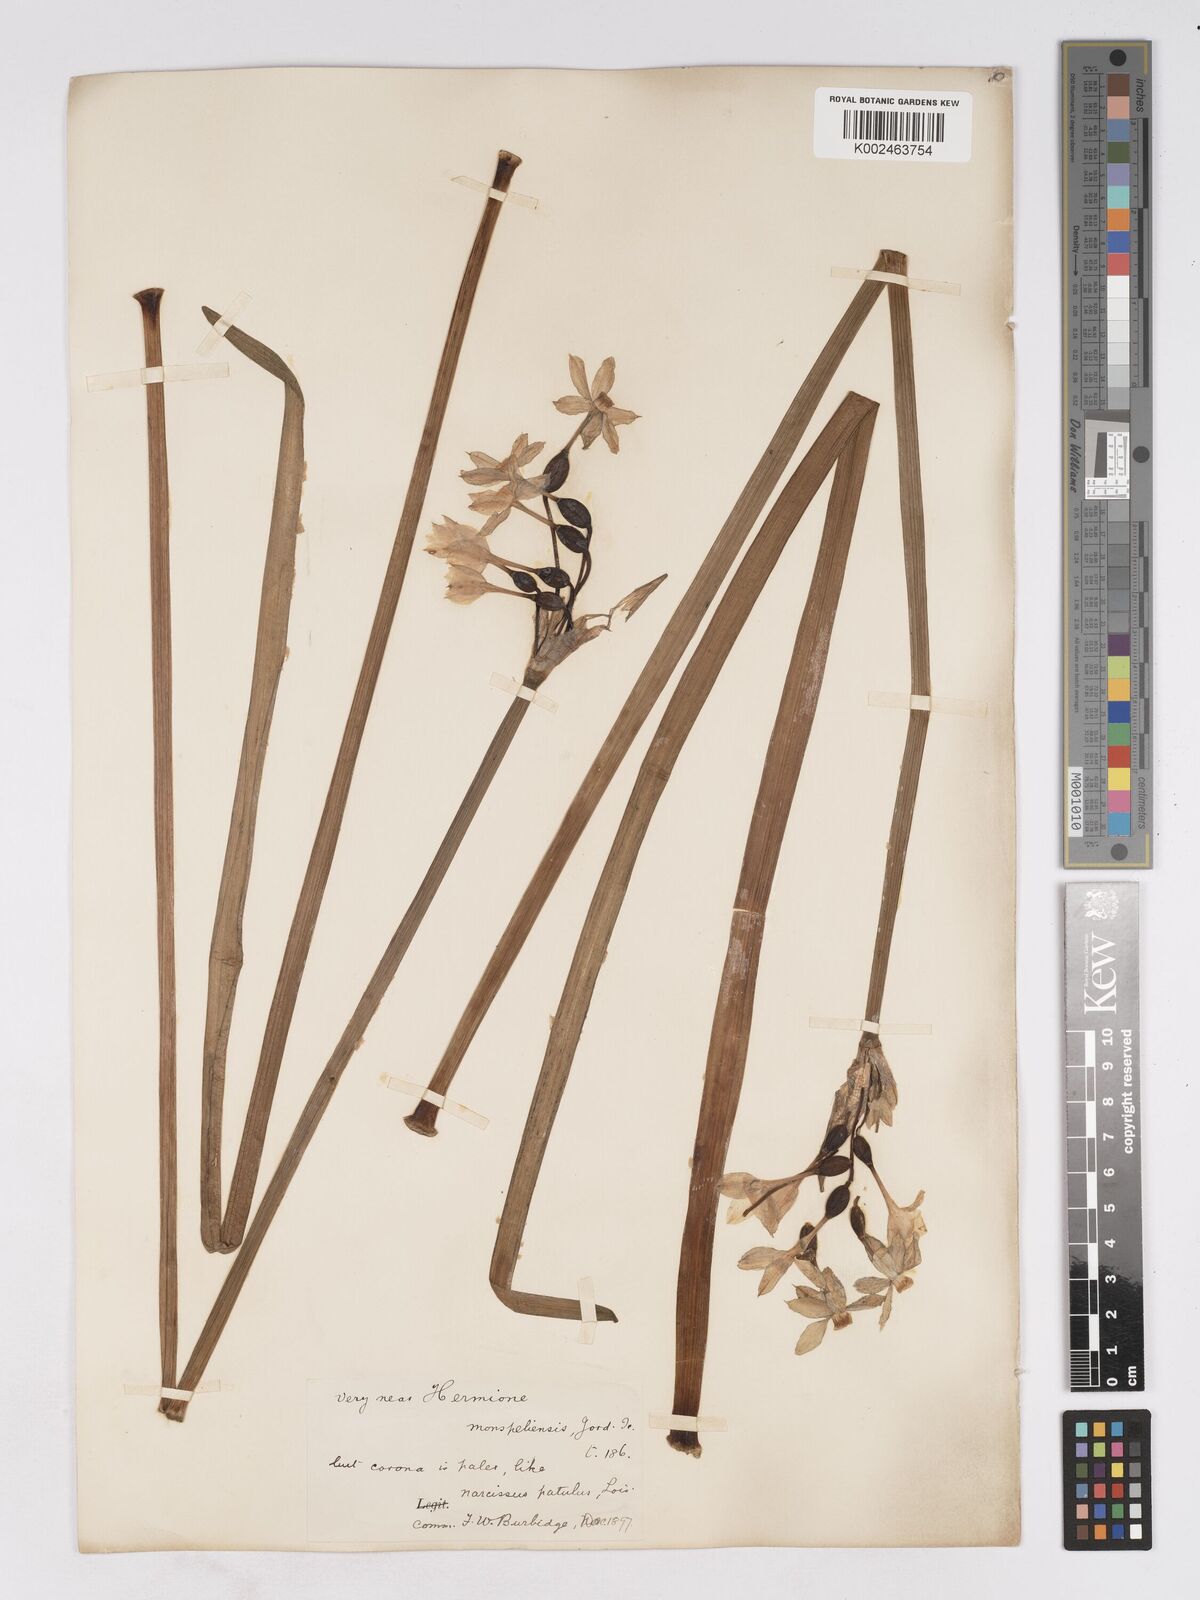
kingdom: Plantae
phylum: Tracheophyta
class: Liliopsida
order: Asparagales
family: Amaryllidaceae
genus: Narcissus
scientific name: Narcissus
